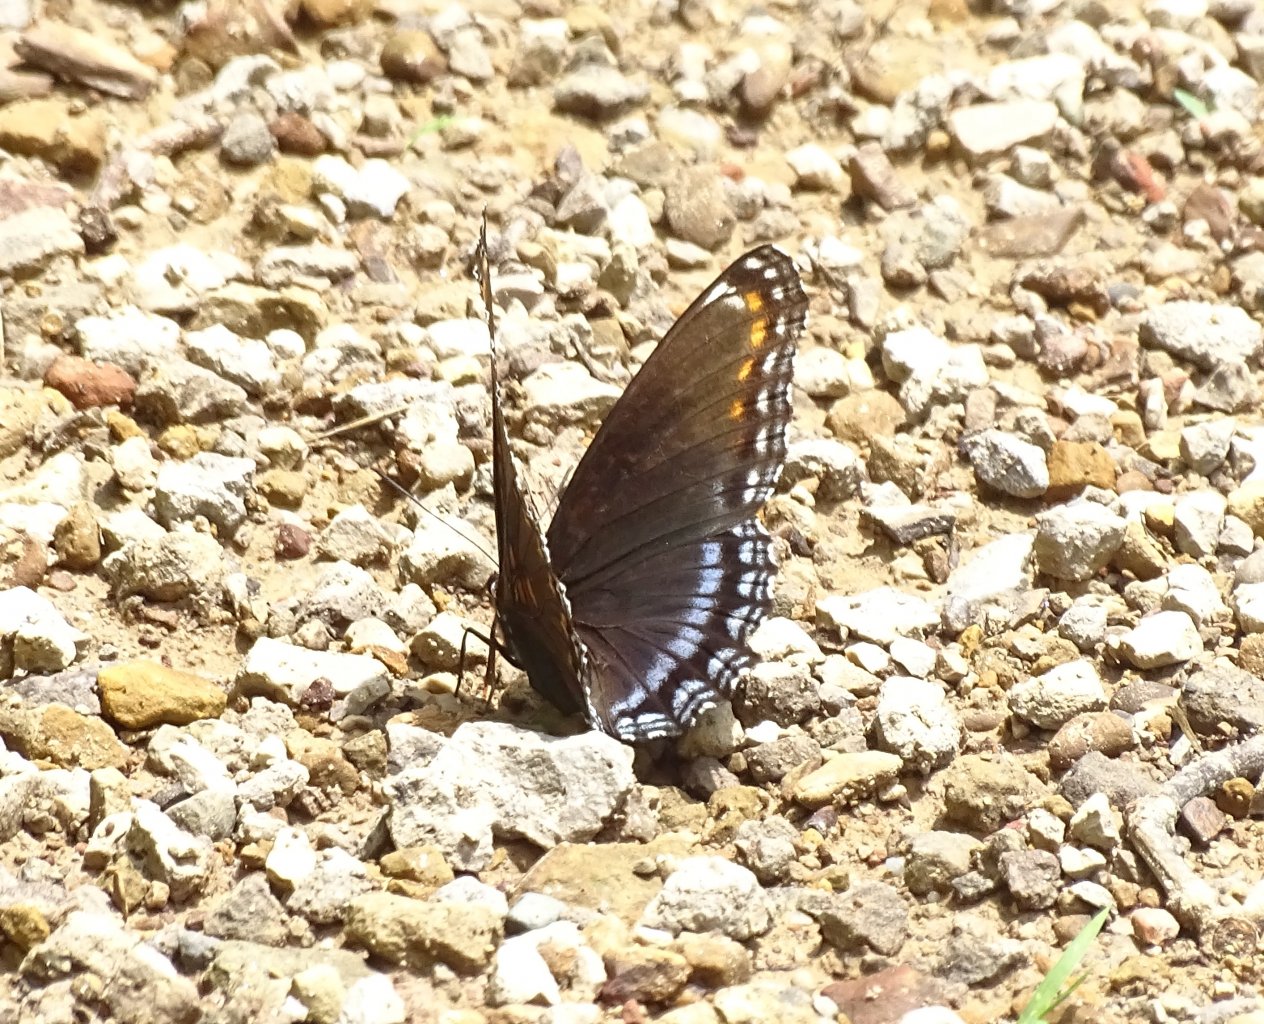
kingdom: Animalia
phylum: Arthropoda
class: Insecta
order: Lepidoptera
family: Nymphalidae
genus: Limenitis
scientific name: Limenitis arthemis
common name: Red-spotted Admiral
